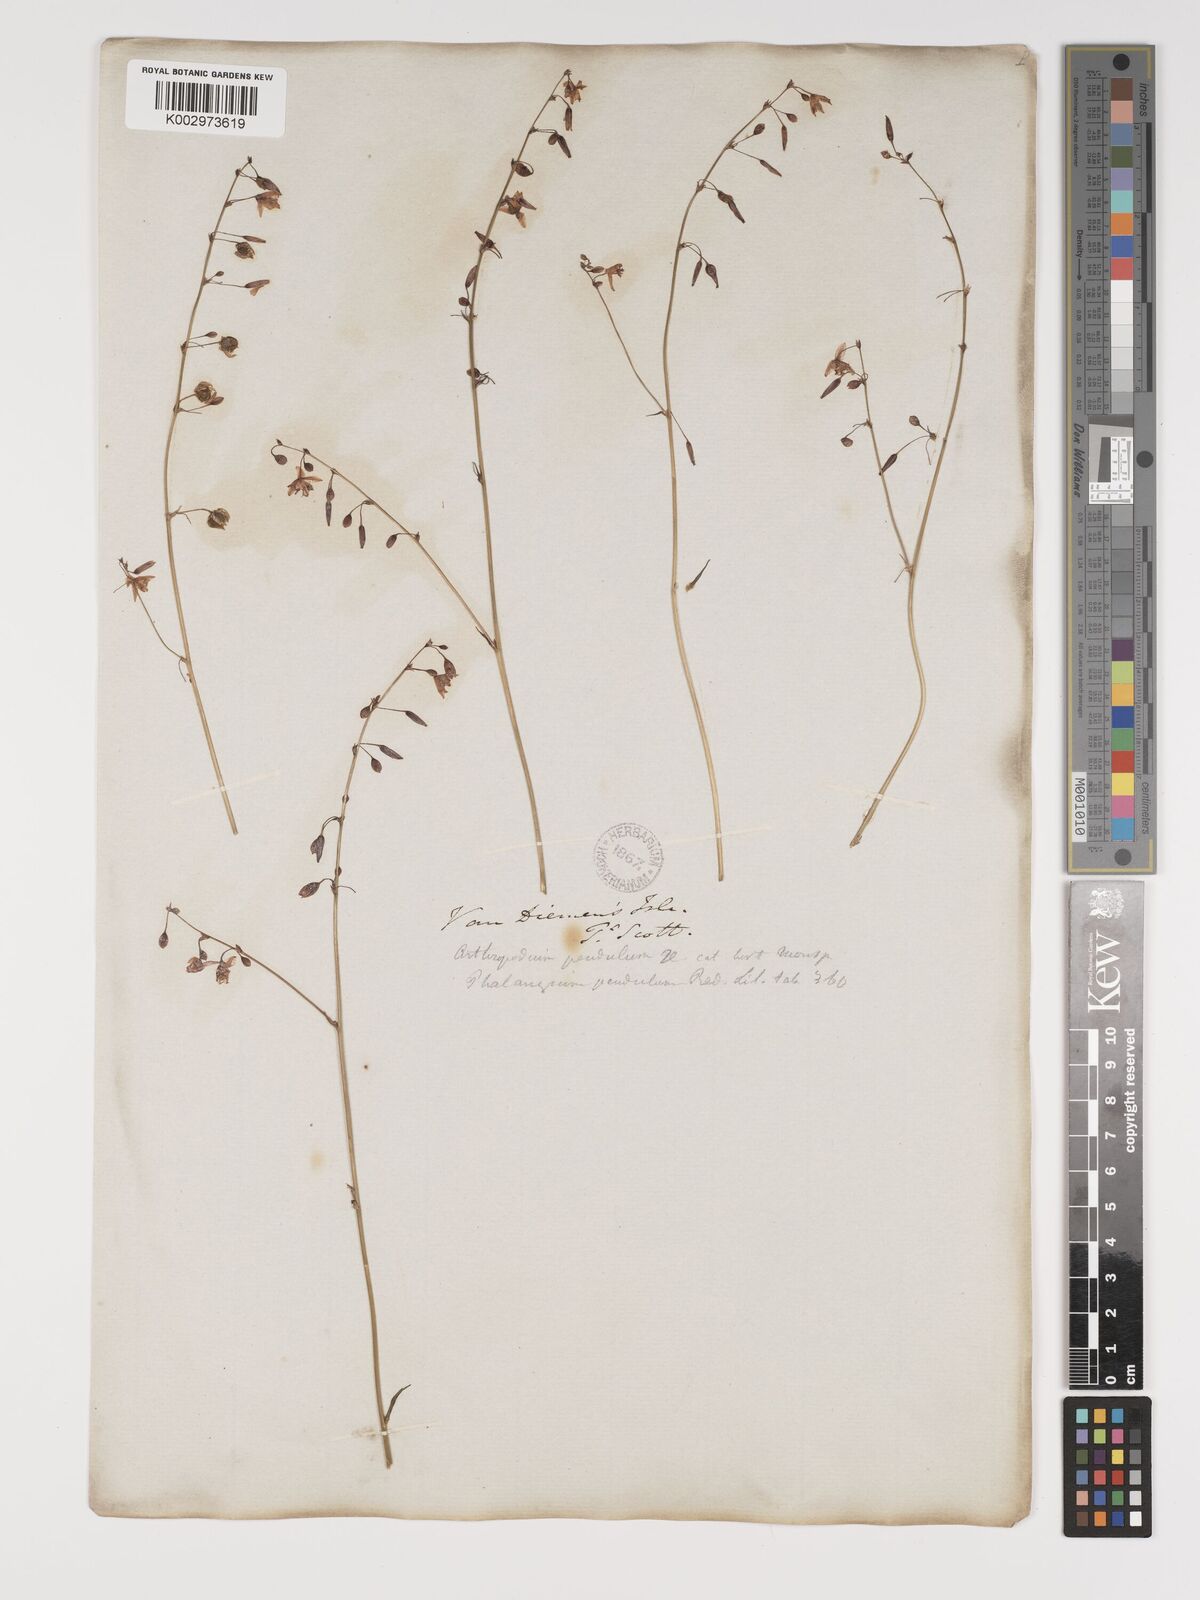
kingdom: Plantae
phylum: Tracheophyta
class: Liliopsida
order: Asparagales
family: Asparagaceae
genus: Arthropodium
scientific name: Arthropodium milleflorum
